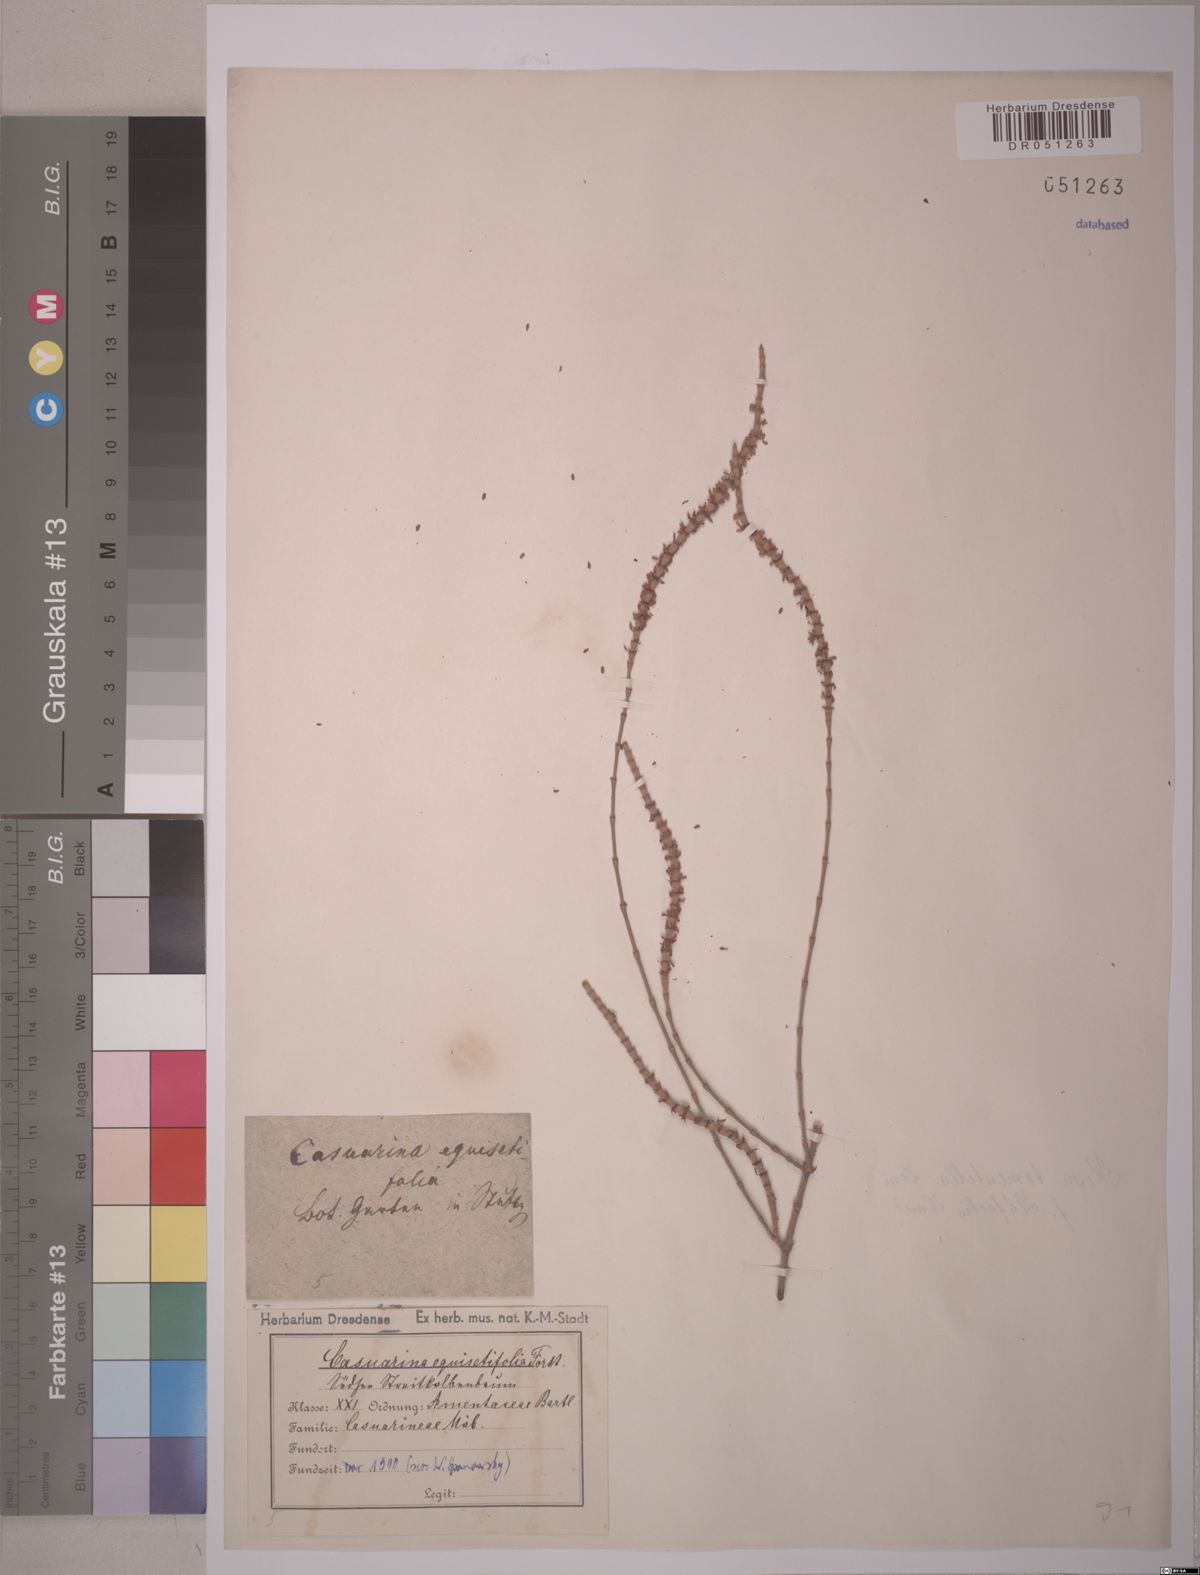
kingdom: Plantae
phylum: Tracheophyta
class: Magnoliopsida
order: Fagales
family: Casuarinaceae
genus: Casuarina
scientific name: Casuarina equisetifolia
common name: Beach sheoak
